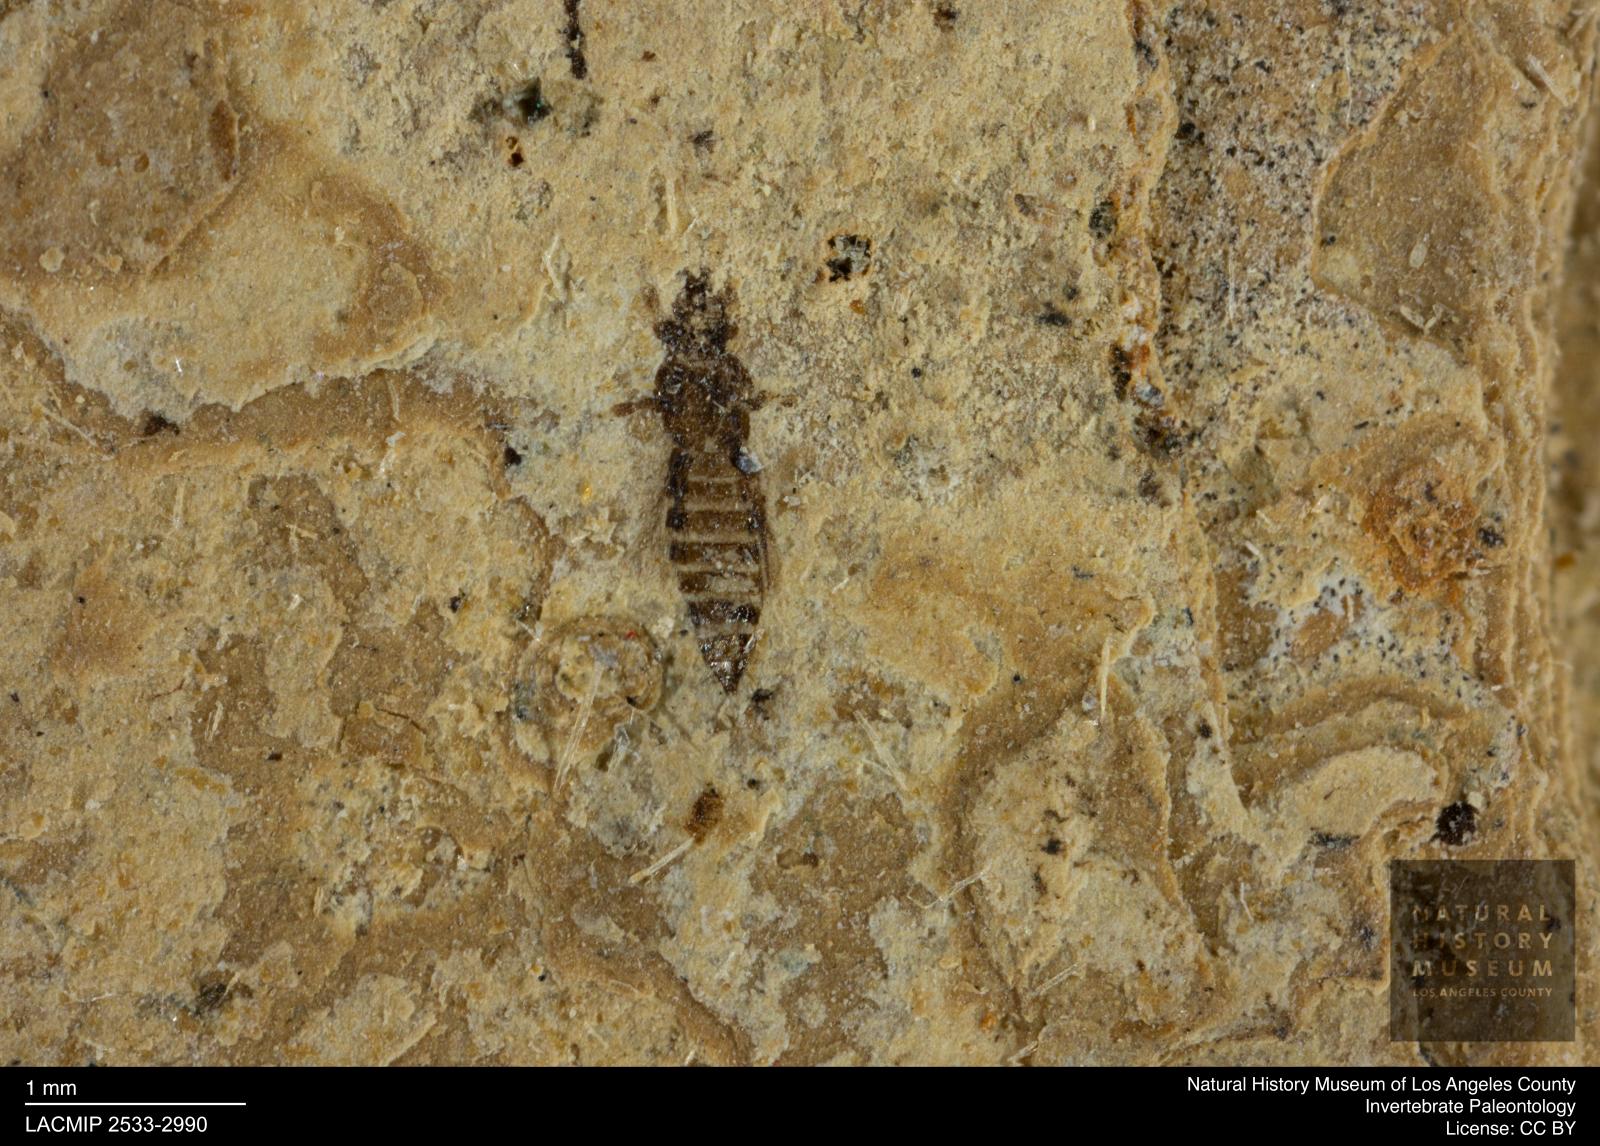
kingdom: Animalia
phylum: Arthropoda
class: Insecta
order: Thysanoptera
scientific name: Thysanoptera
